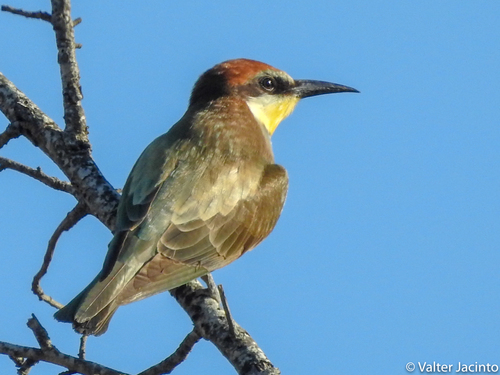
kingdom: Animalia
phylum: Chordata
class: Aves
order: Coraciiformes
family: Meropidae
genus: Merops
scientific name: Merops apiaster
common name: European bee-eater
